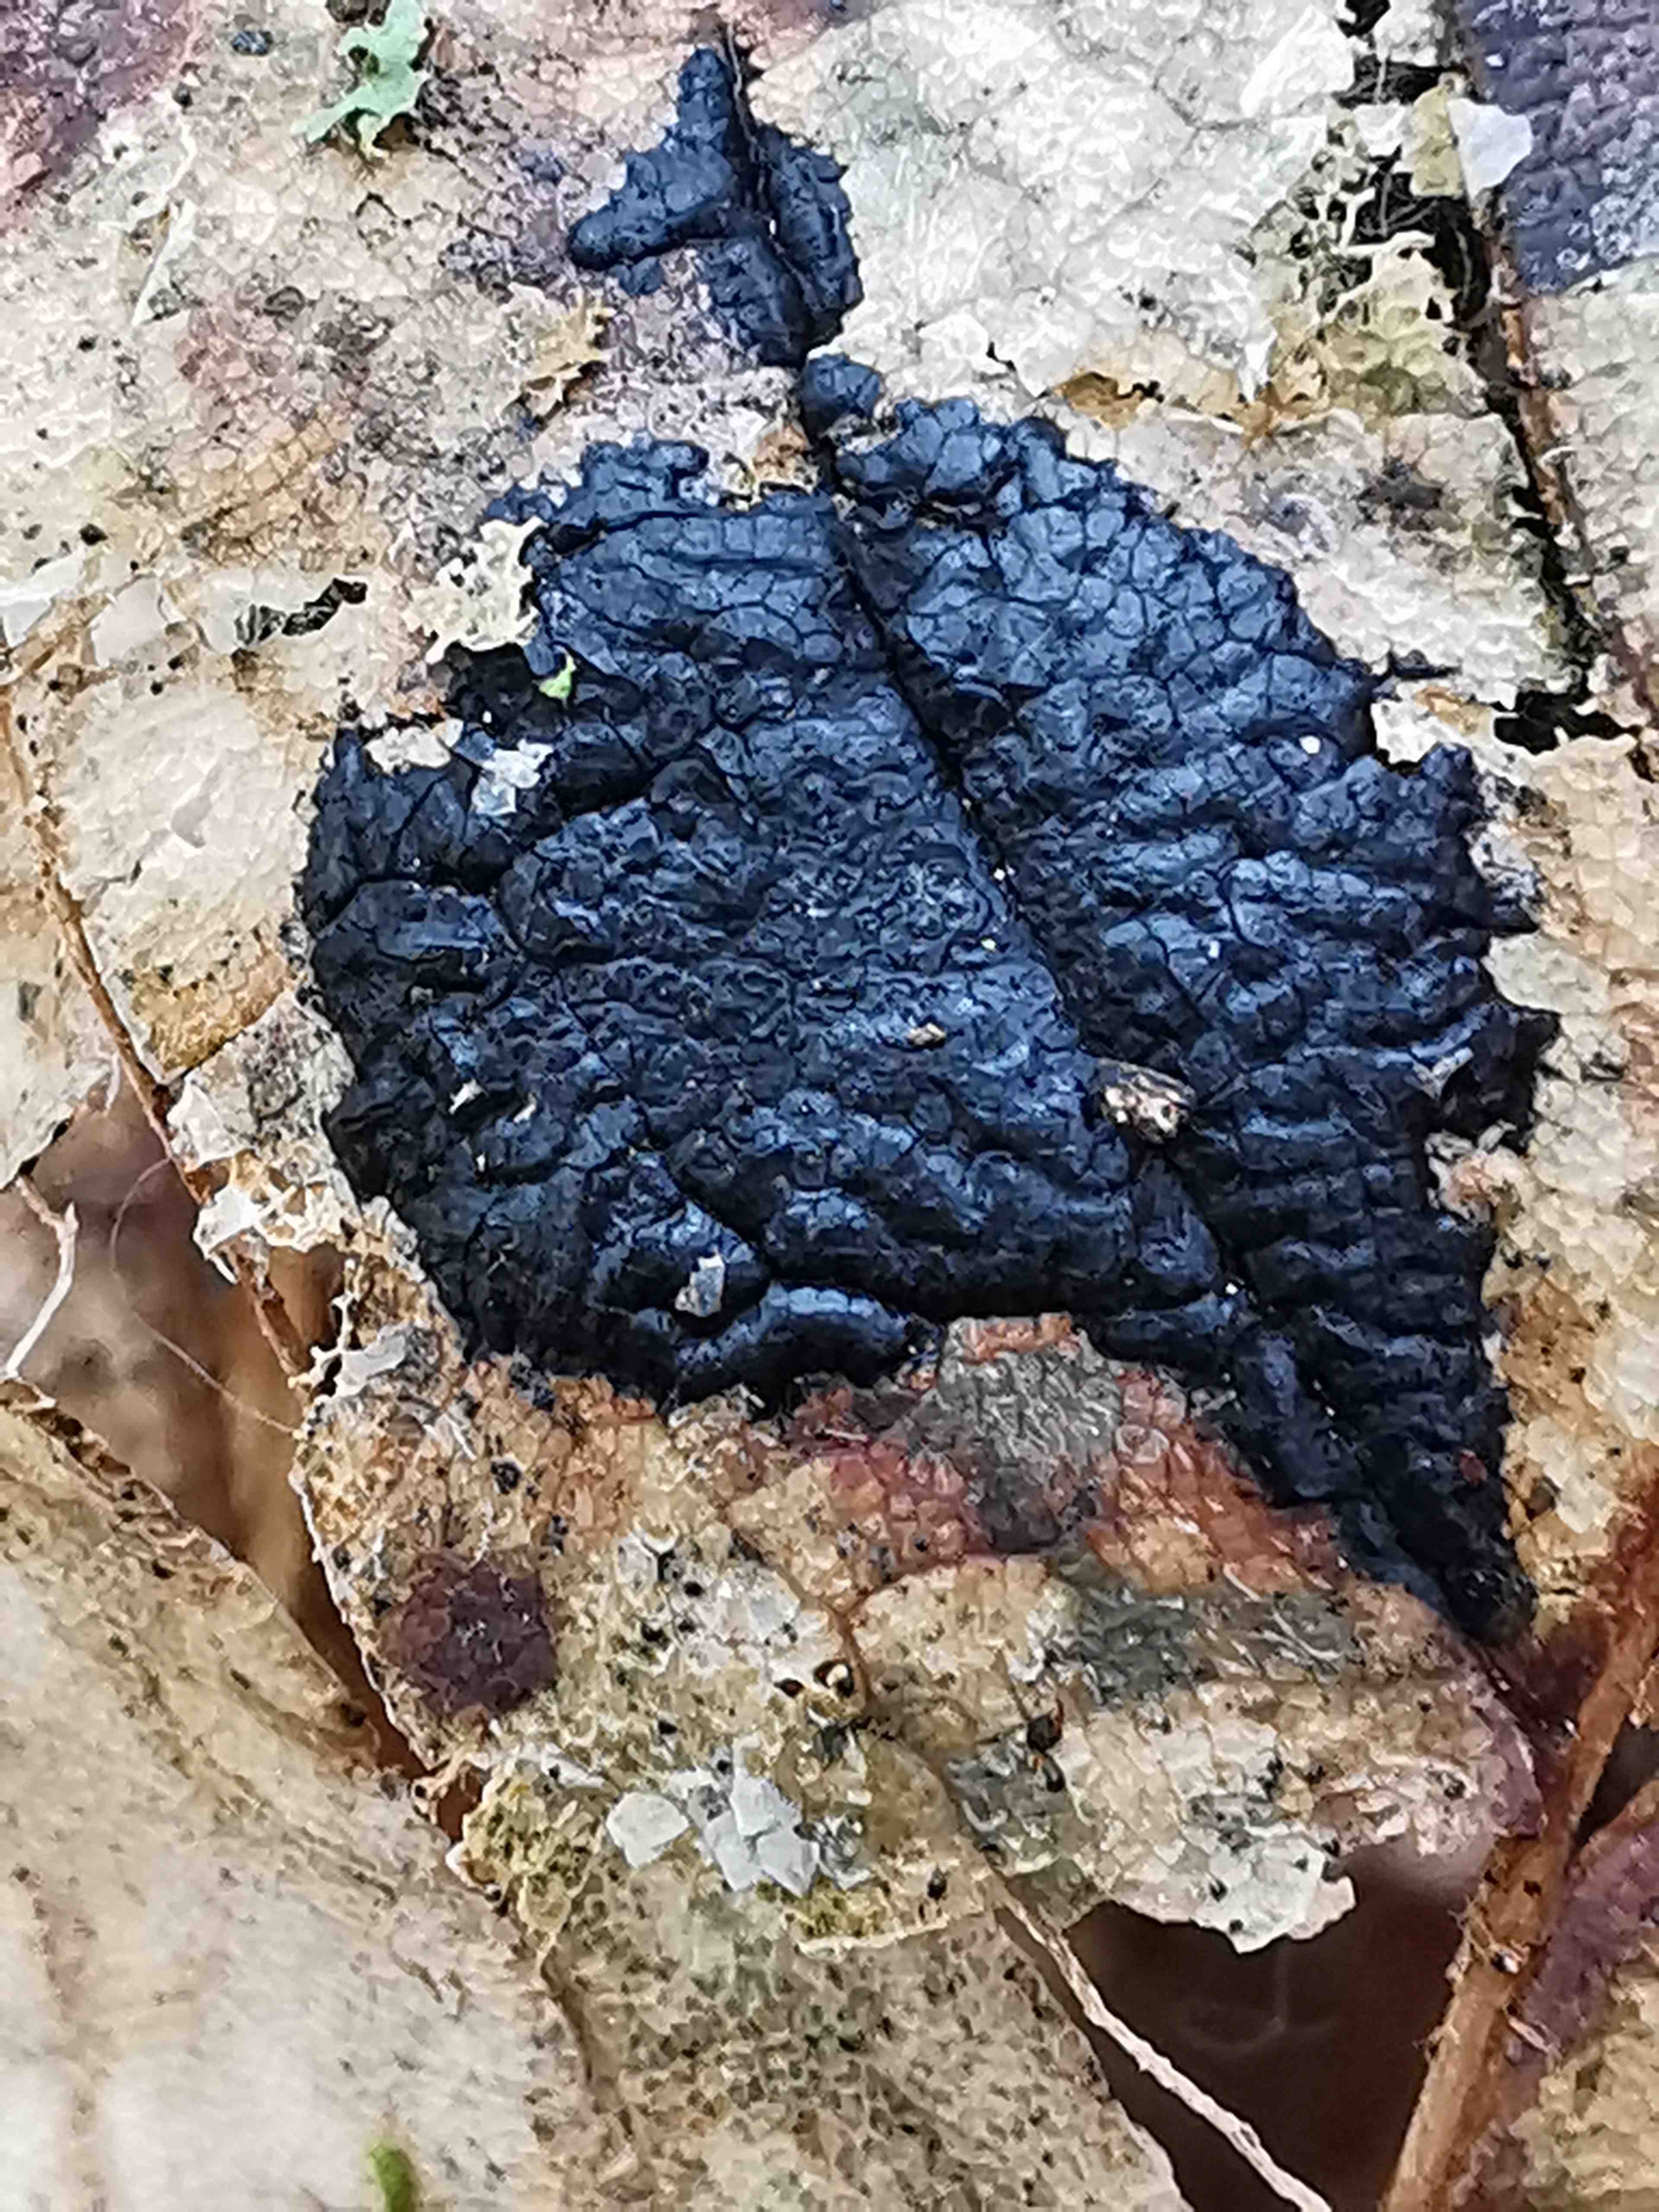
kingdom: Fungi
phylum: Ascomycota
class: Leotiomycetes
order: Rhytismatales
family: Rhytismataceae
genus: Rhytisma
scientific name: Rhytisma acerinum
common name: ahorn-rynkeplet
